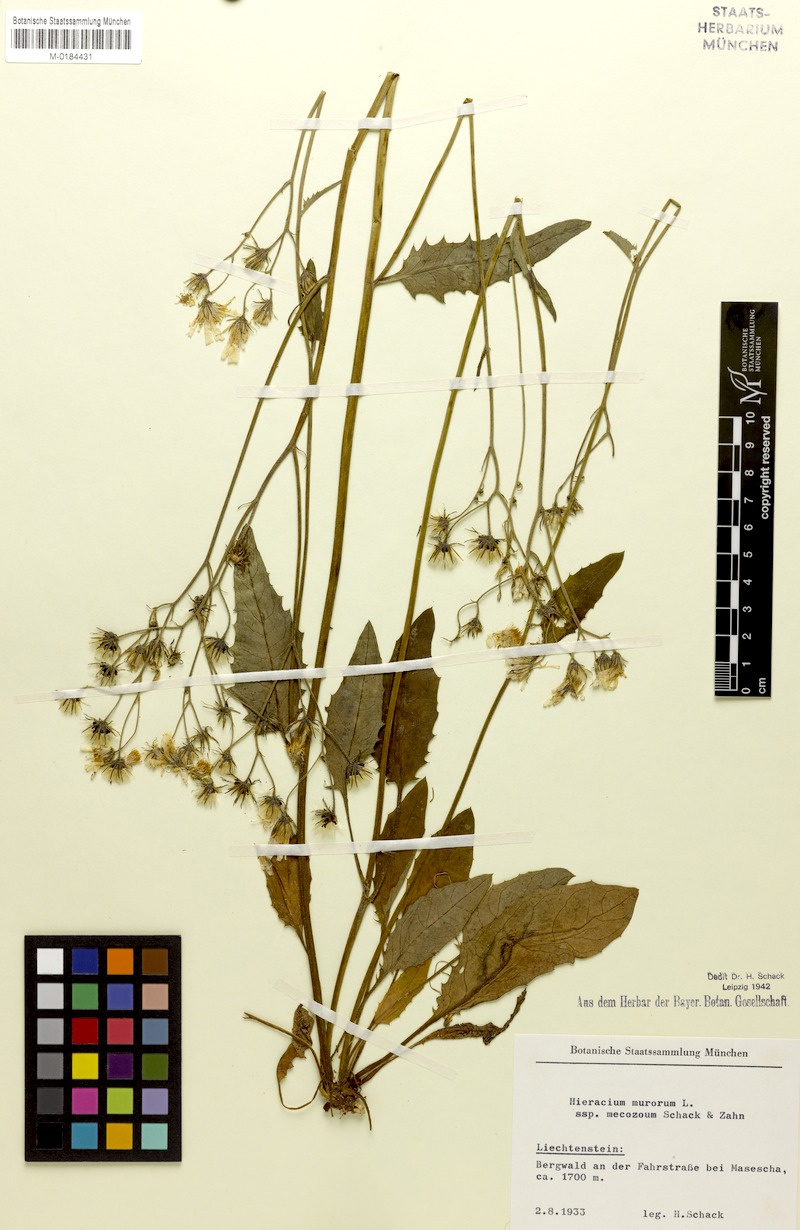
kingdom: Plantae
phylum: Tracheophyta
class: Magnoliopsida
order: Asterales
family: Asteraceae
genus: Hieracium
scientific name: Hieracium murorum
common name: Wall hawkweed
